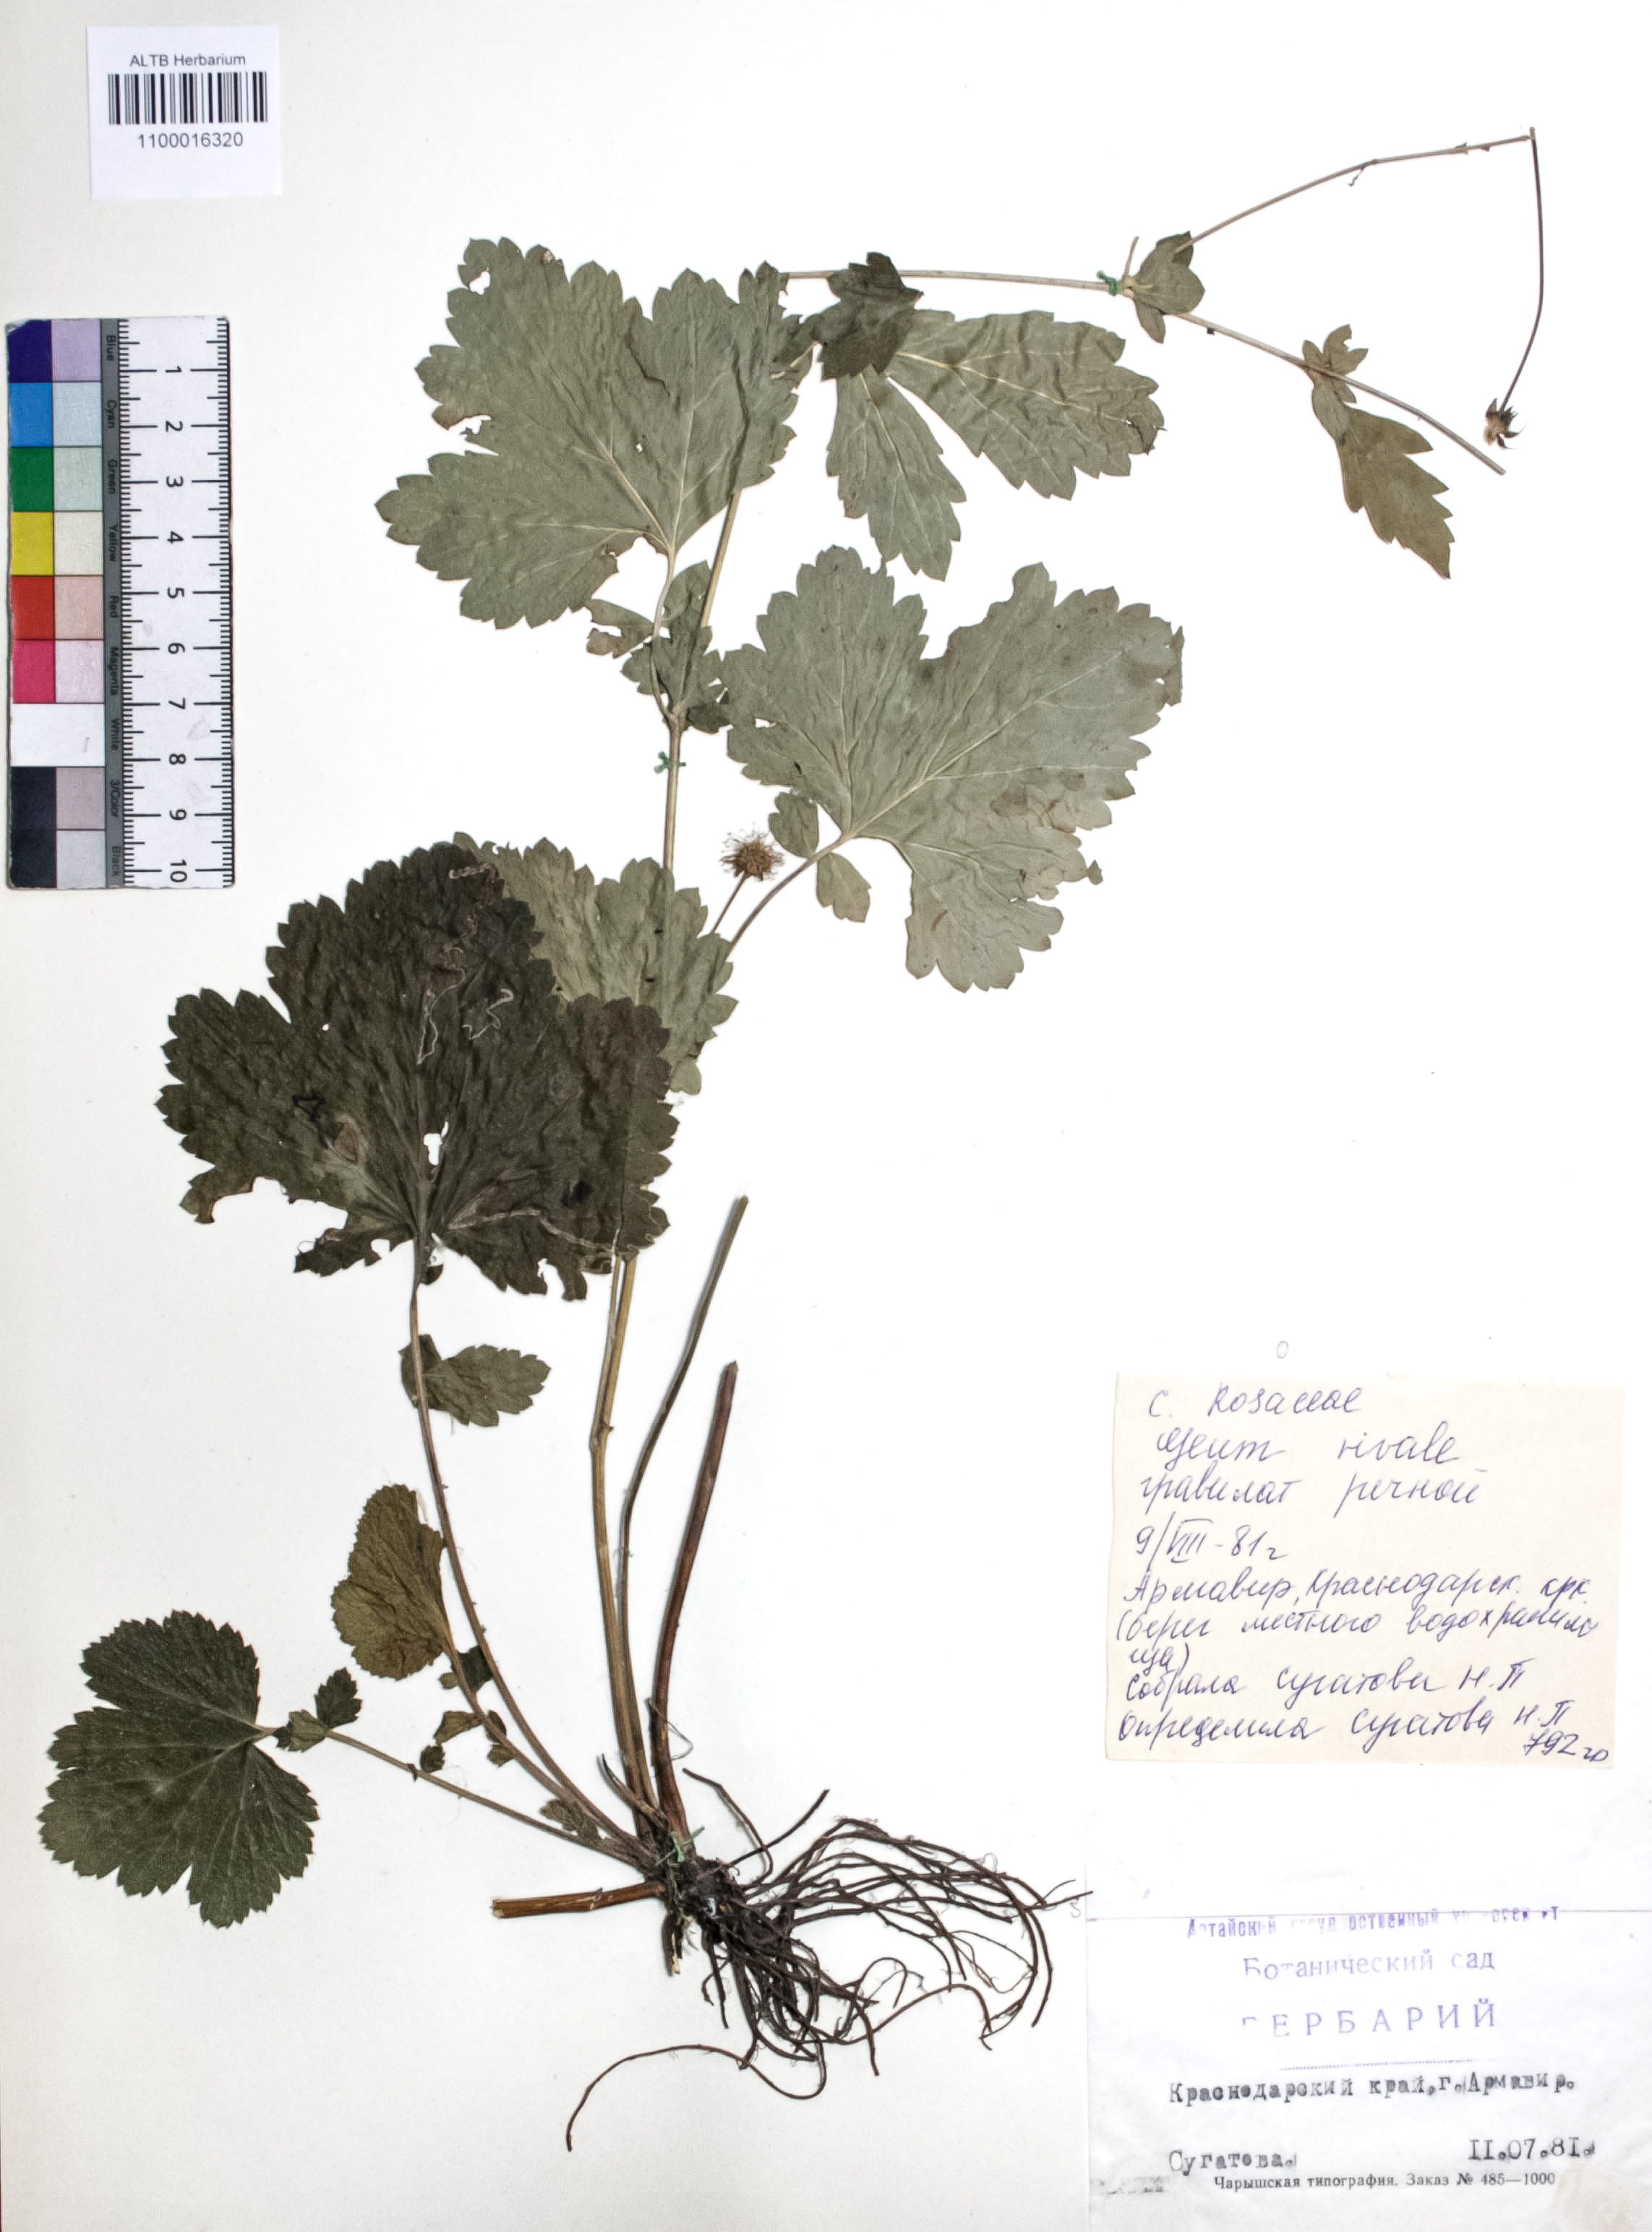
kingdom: Plantae
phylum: Tracheophyta
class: Magnoliopsida
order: Rosales
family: Rosaceae
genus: Geum
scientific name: Geum rivale
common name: Water avens
